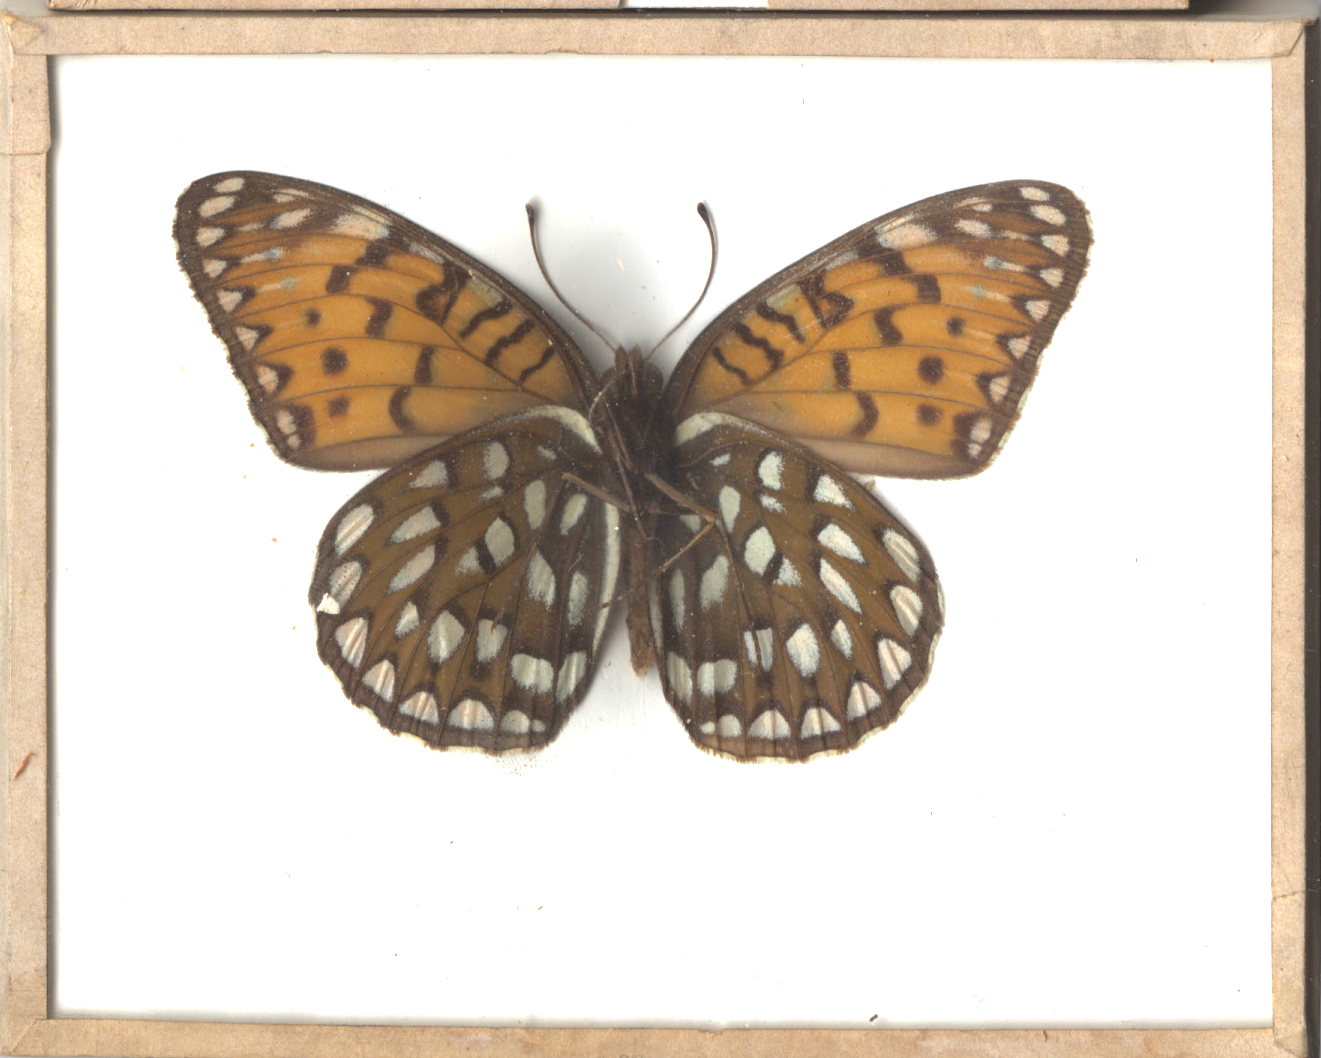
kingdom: Animalia
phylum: Arthropoda
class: Insecta
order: Lepidoptera
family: Nymphalidae
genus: Speyeria
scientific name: Speyeria idalia
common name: Regal Fritillary
